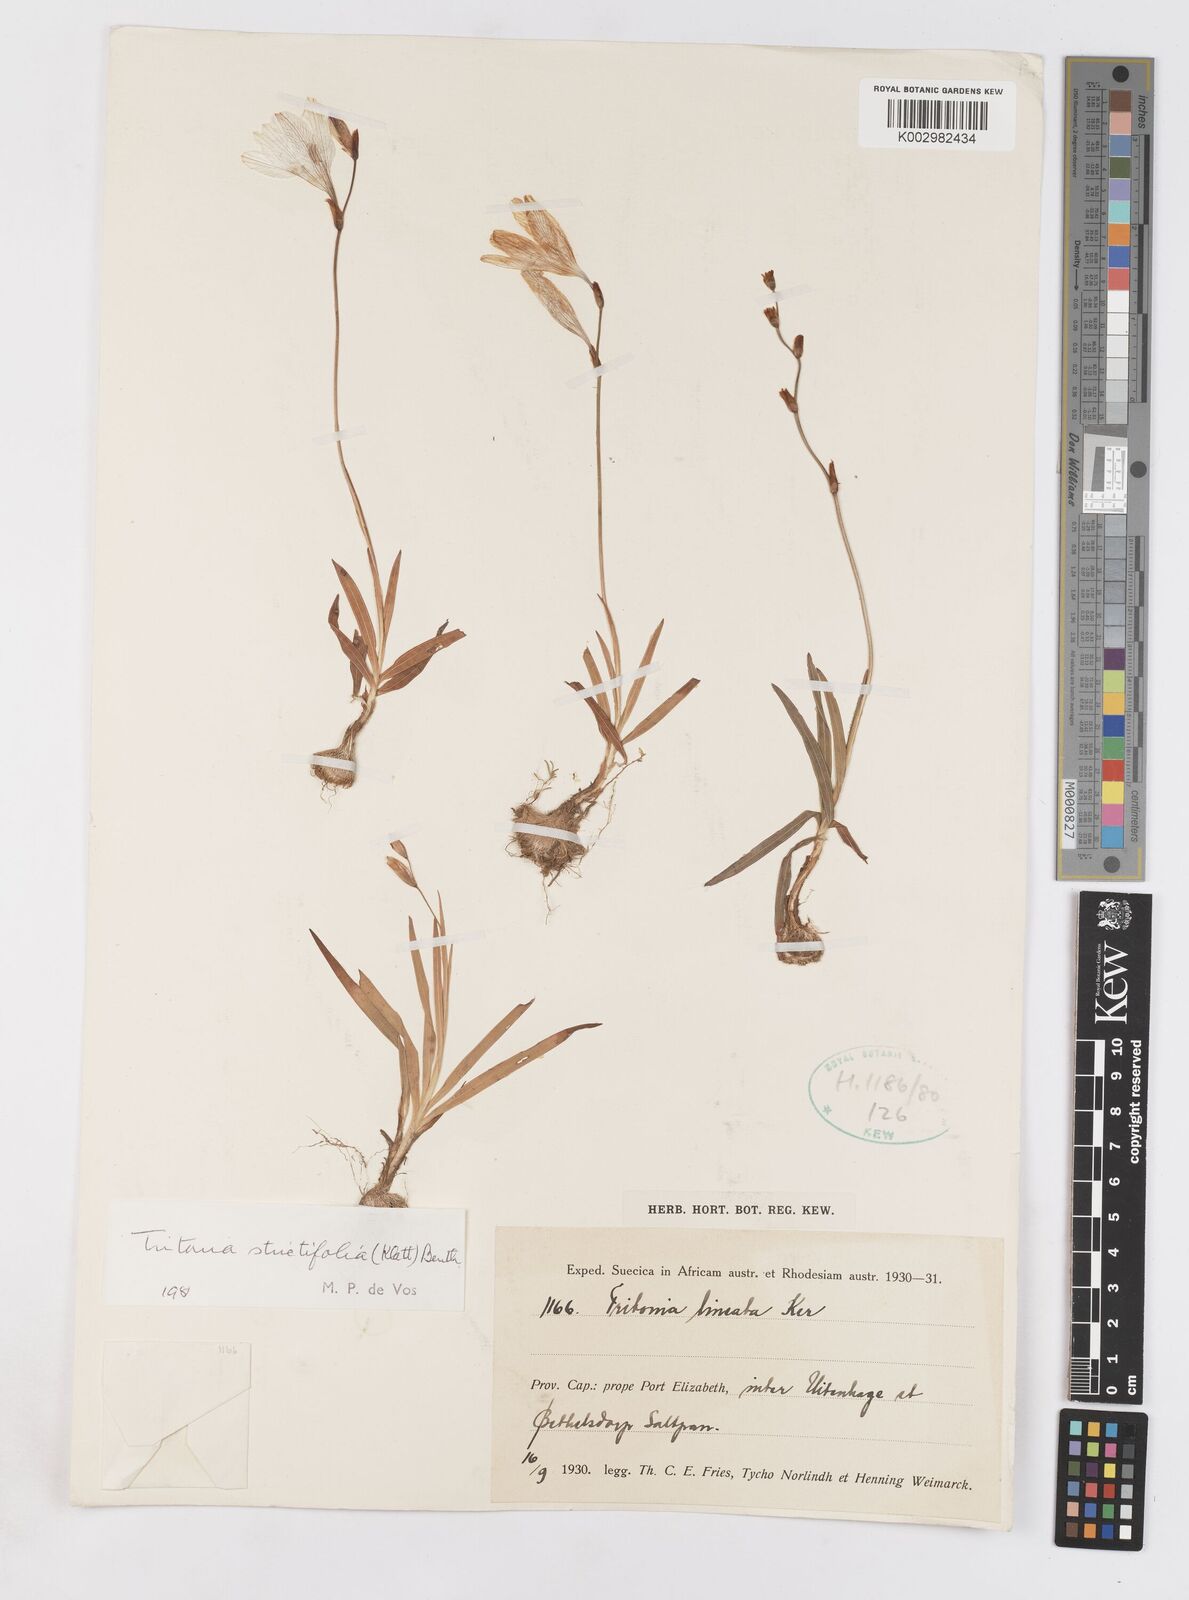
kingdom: Plantae
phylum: Tracheophyta
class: Liliopsida
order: Asparagales
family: Iridaceae
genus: Tritonia
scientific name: Tritonia laxifolia
